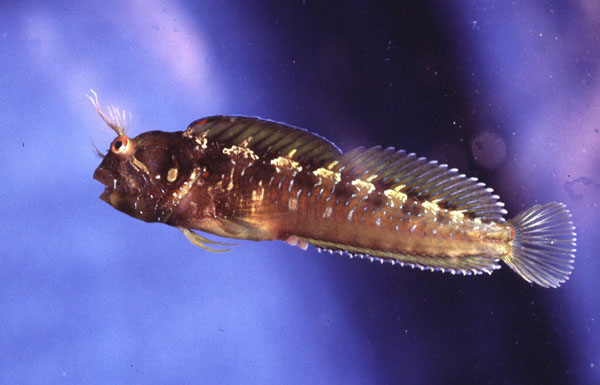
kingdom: Animalia
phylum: Chordata
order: Perciformes
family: Blenniidae
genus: Parablennius
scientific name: Parablennius incognitus
